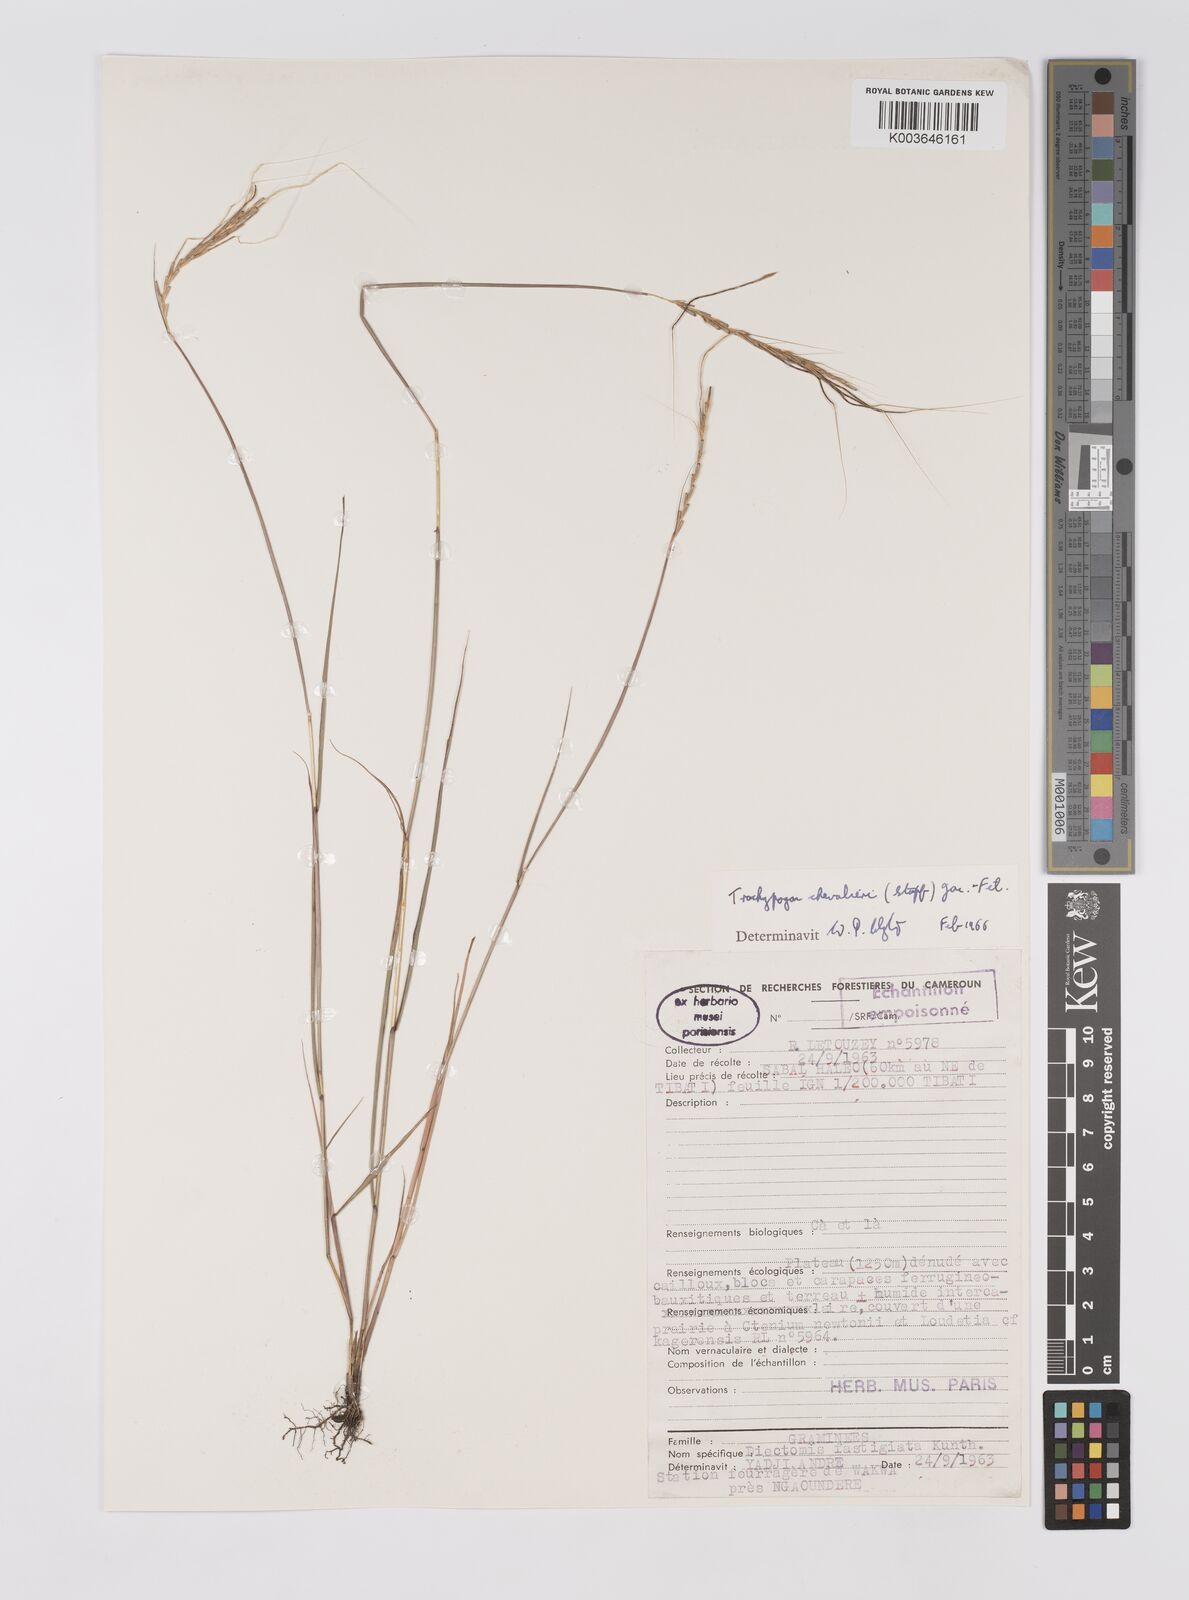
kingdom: Plantae
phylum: Tracheophyta
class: Liliopsida
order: Poales
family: Poaceae
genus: Trachypogon
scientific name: Trachypogon chevalieri
